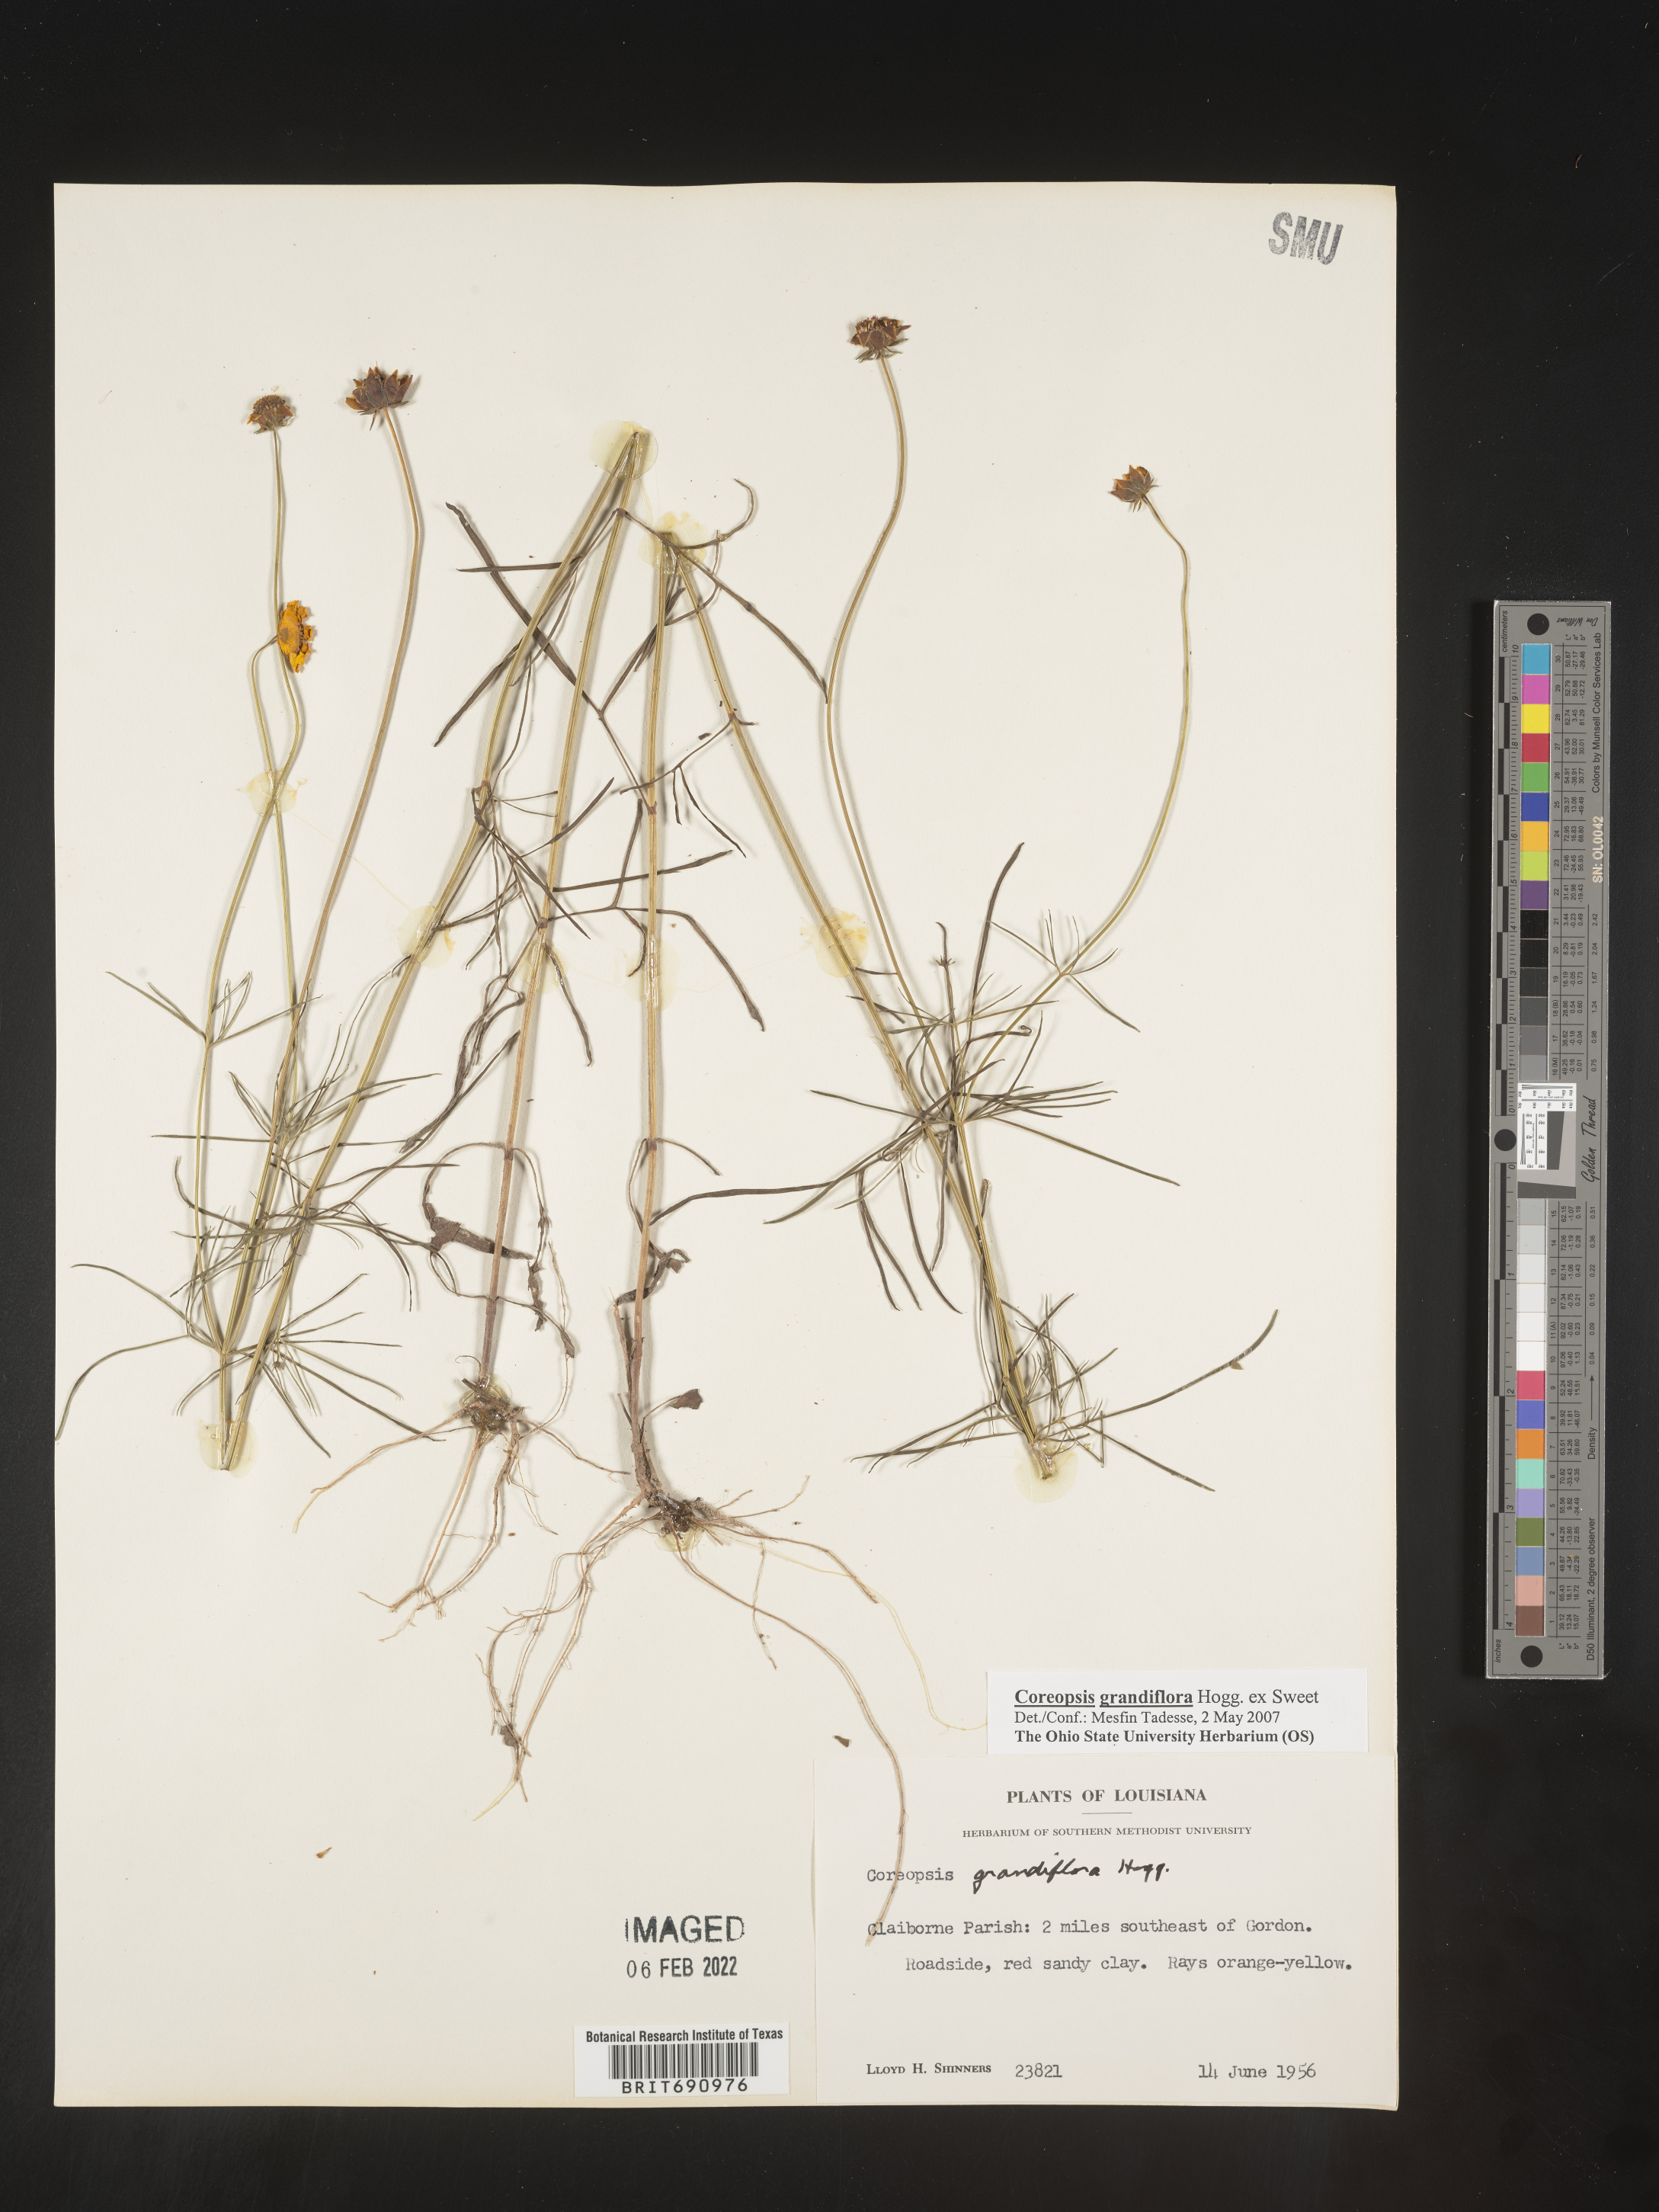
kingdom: Plantae
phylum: Tracheophyta
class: Magnoliopsida
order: Asterales
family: Asteraceae
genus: Coreopsis
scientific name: Coreopsis grandiflora
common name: Large-flowered tickseed
